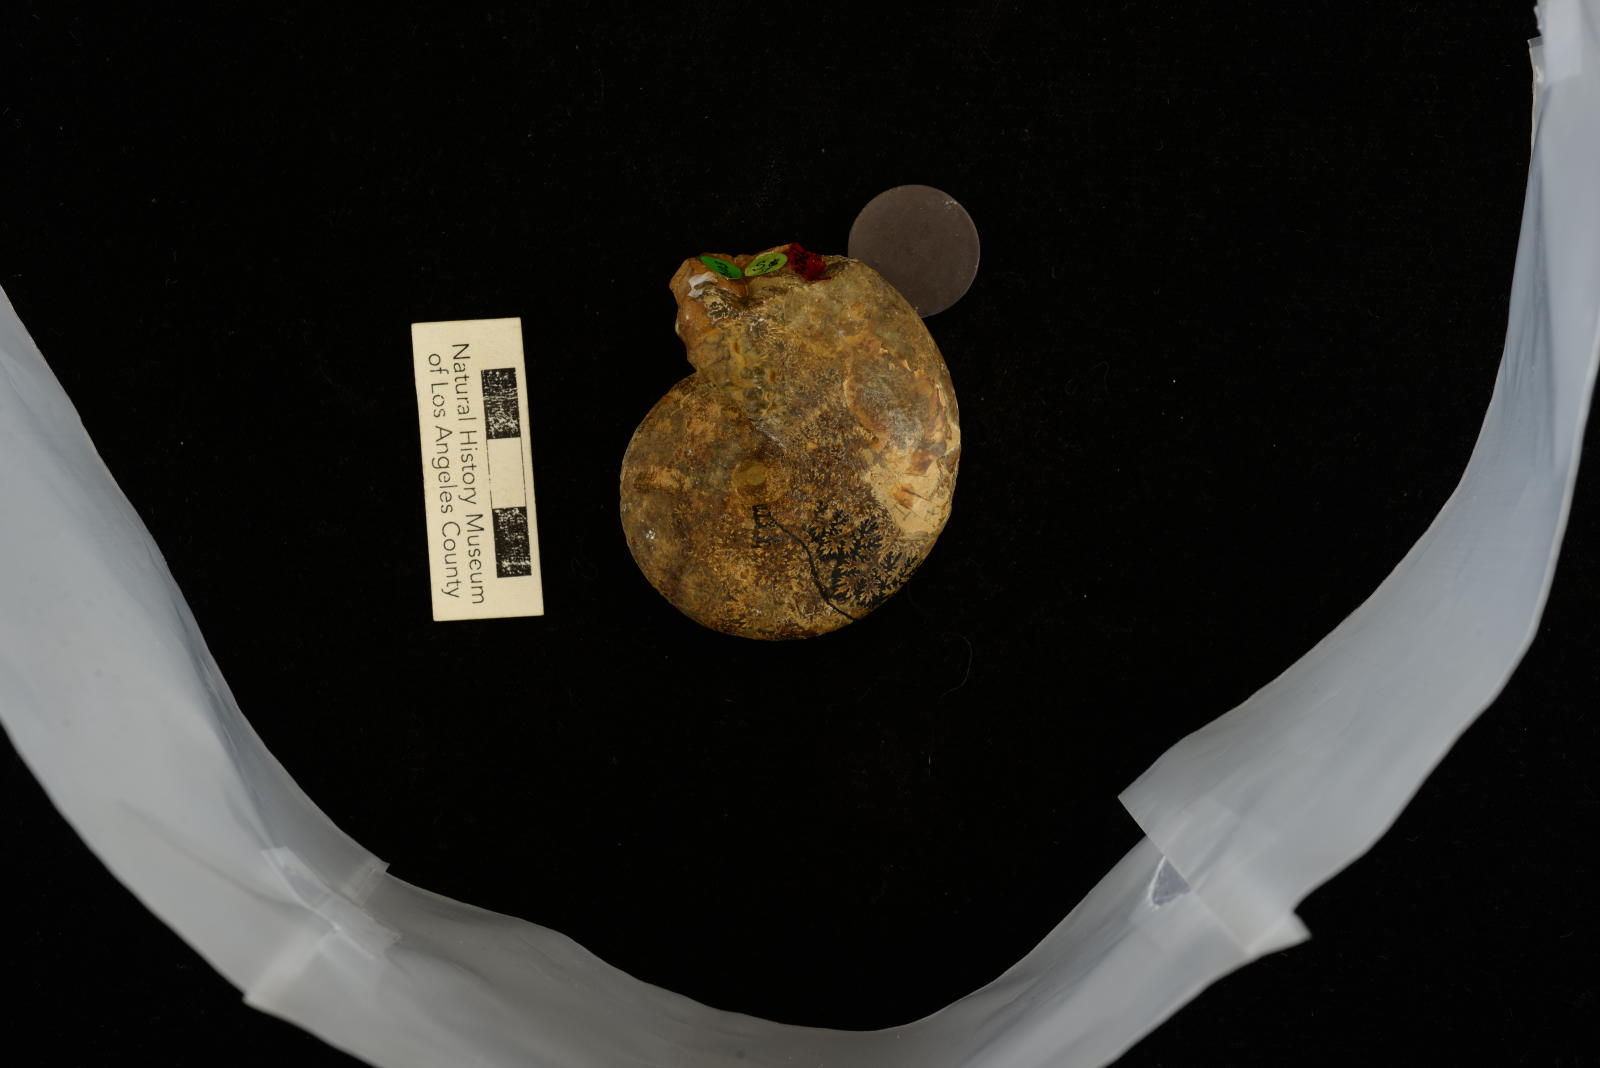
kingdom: Animalia
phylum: Mollusca
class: Cephalopoda
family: Desmoceratidae
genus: Desmoceras
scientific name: Desmoceras vetus
